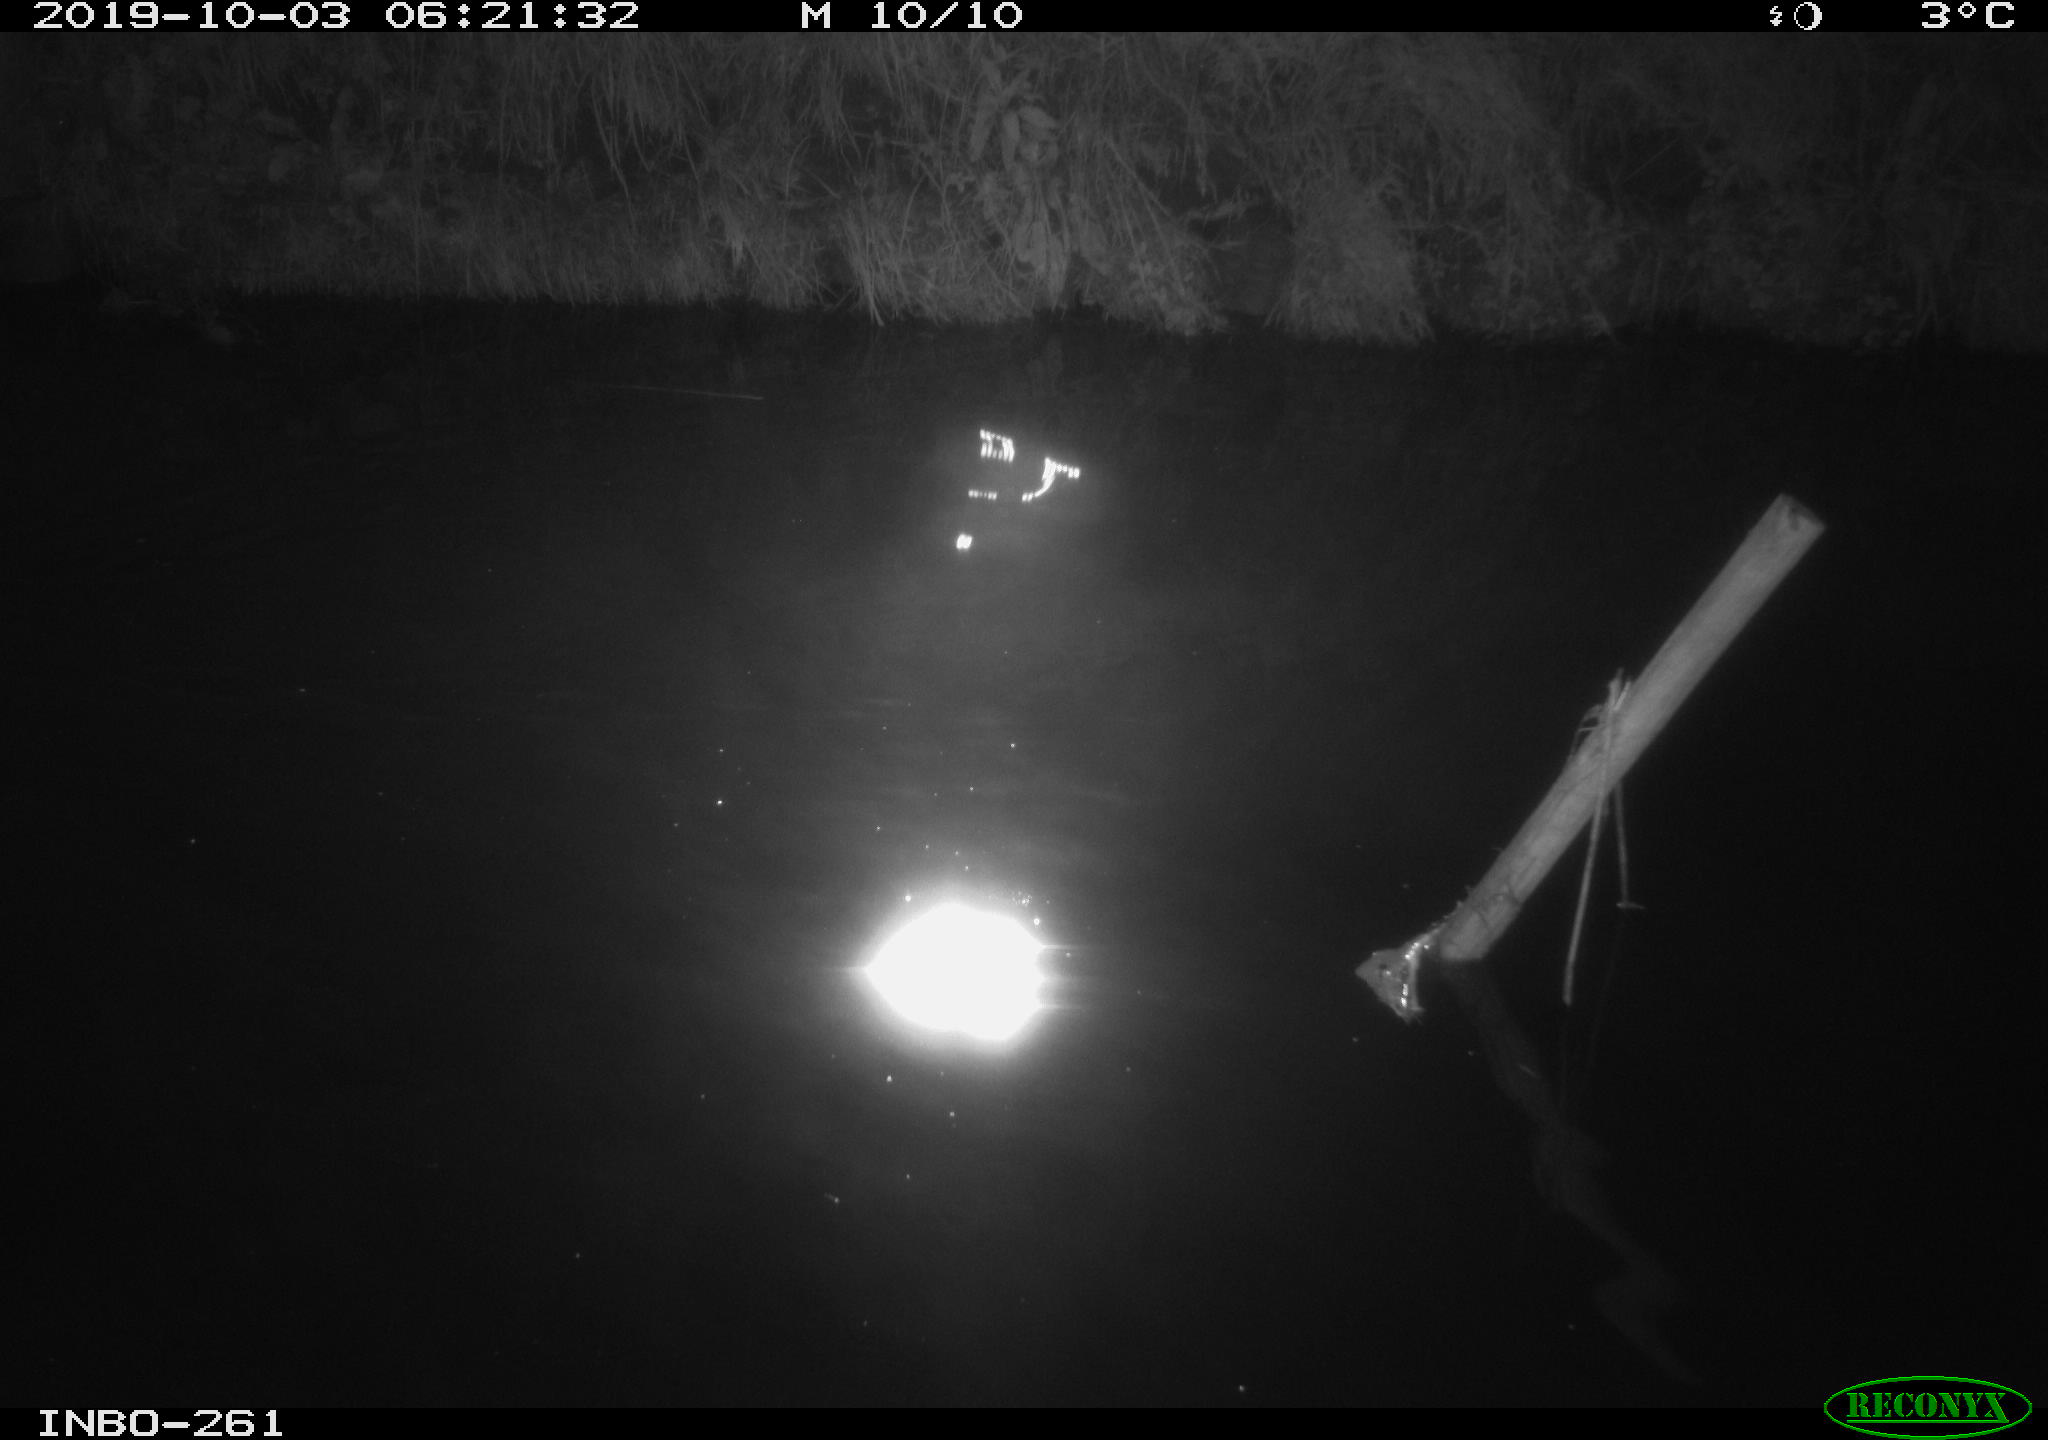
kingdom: Animalia
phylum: Chordata
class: Aves
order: Anseriformes
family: Anatidae
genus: Anas
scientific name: Anas platyrhynchos
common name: Mallard
